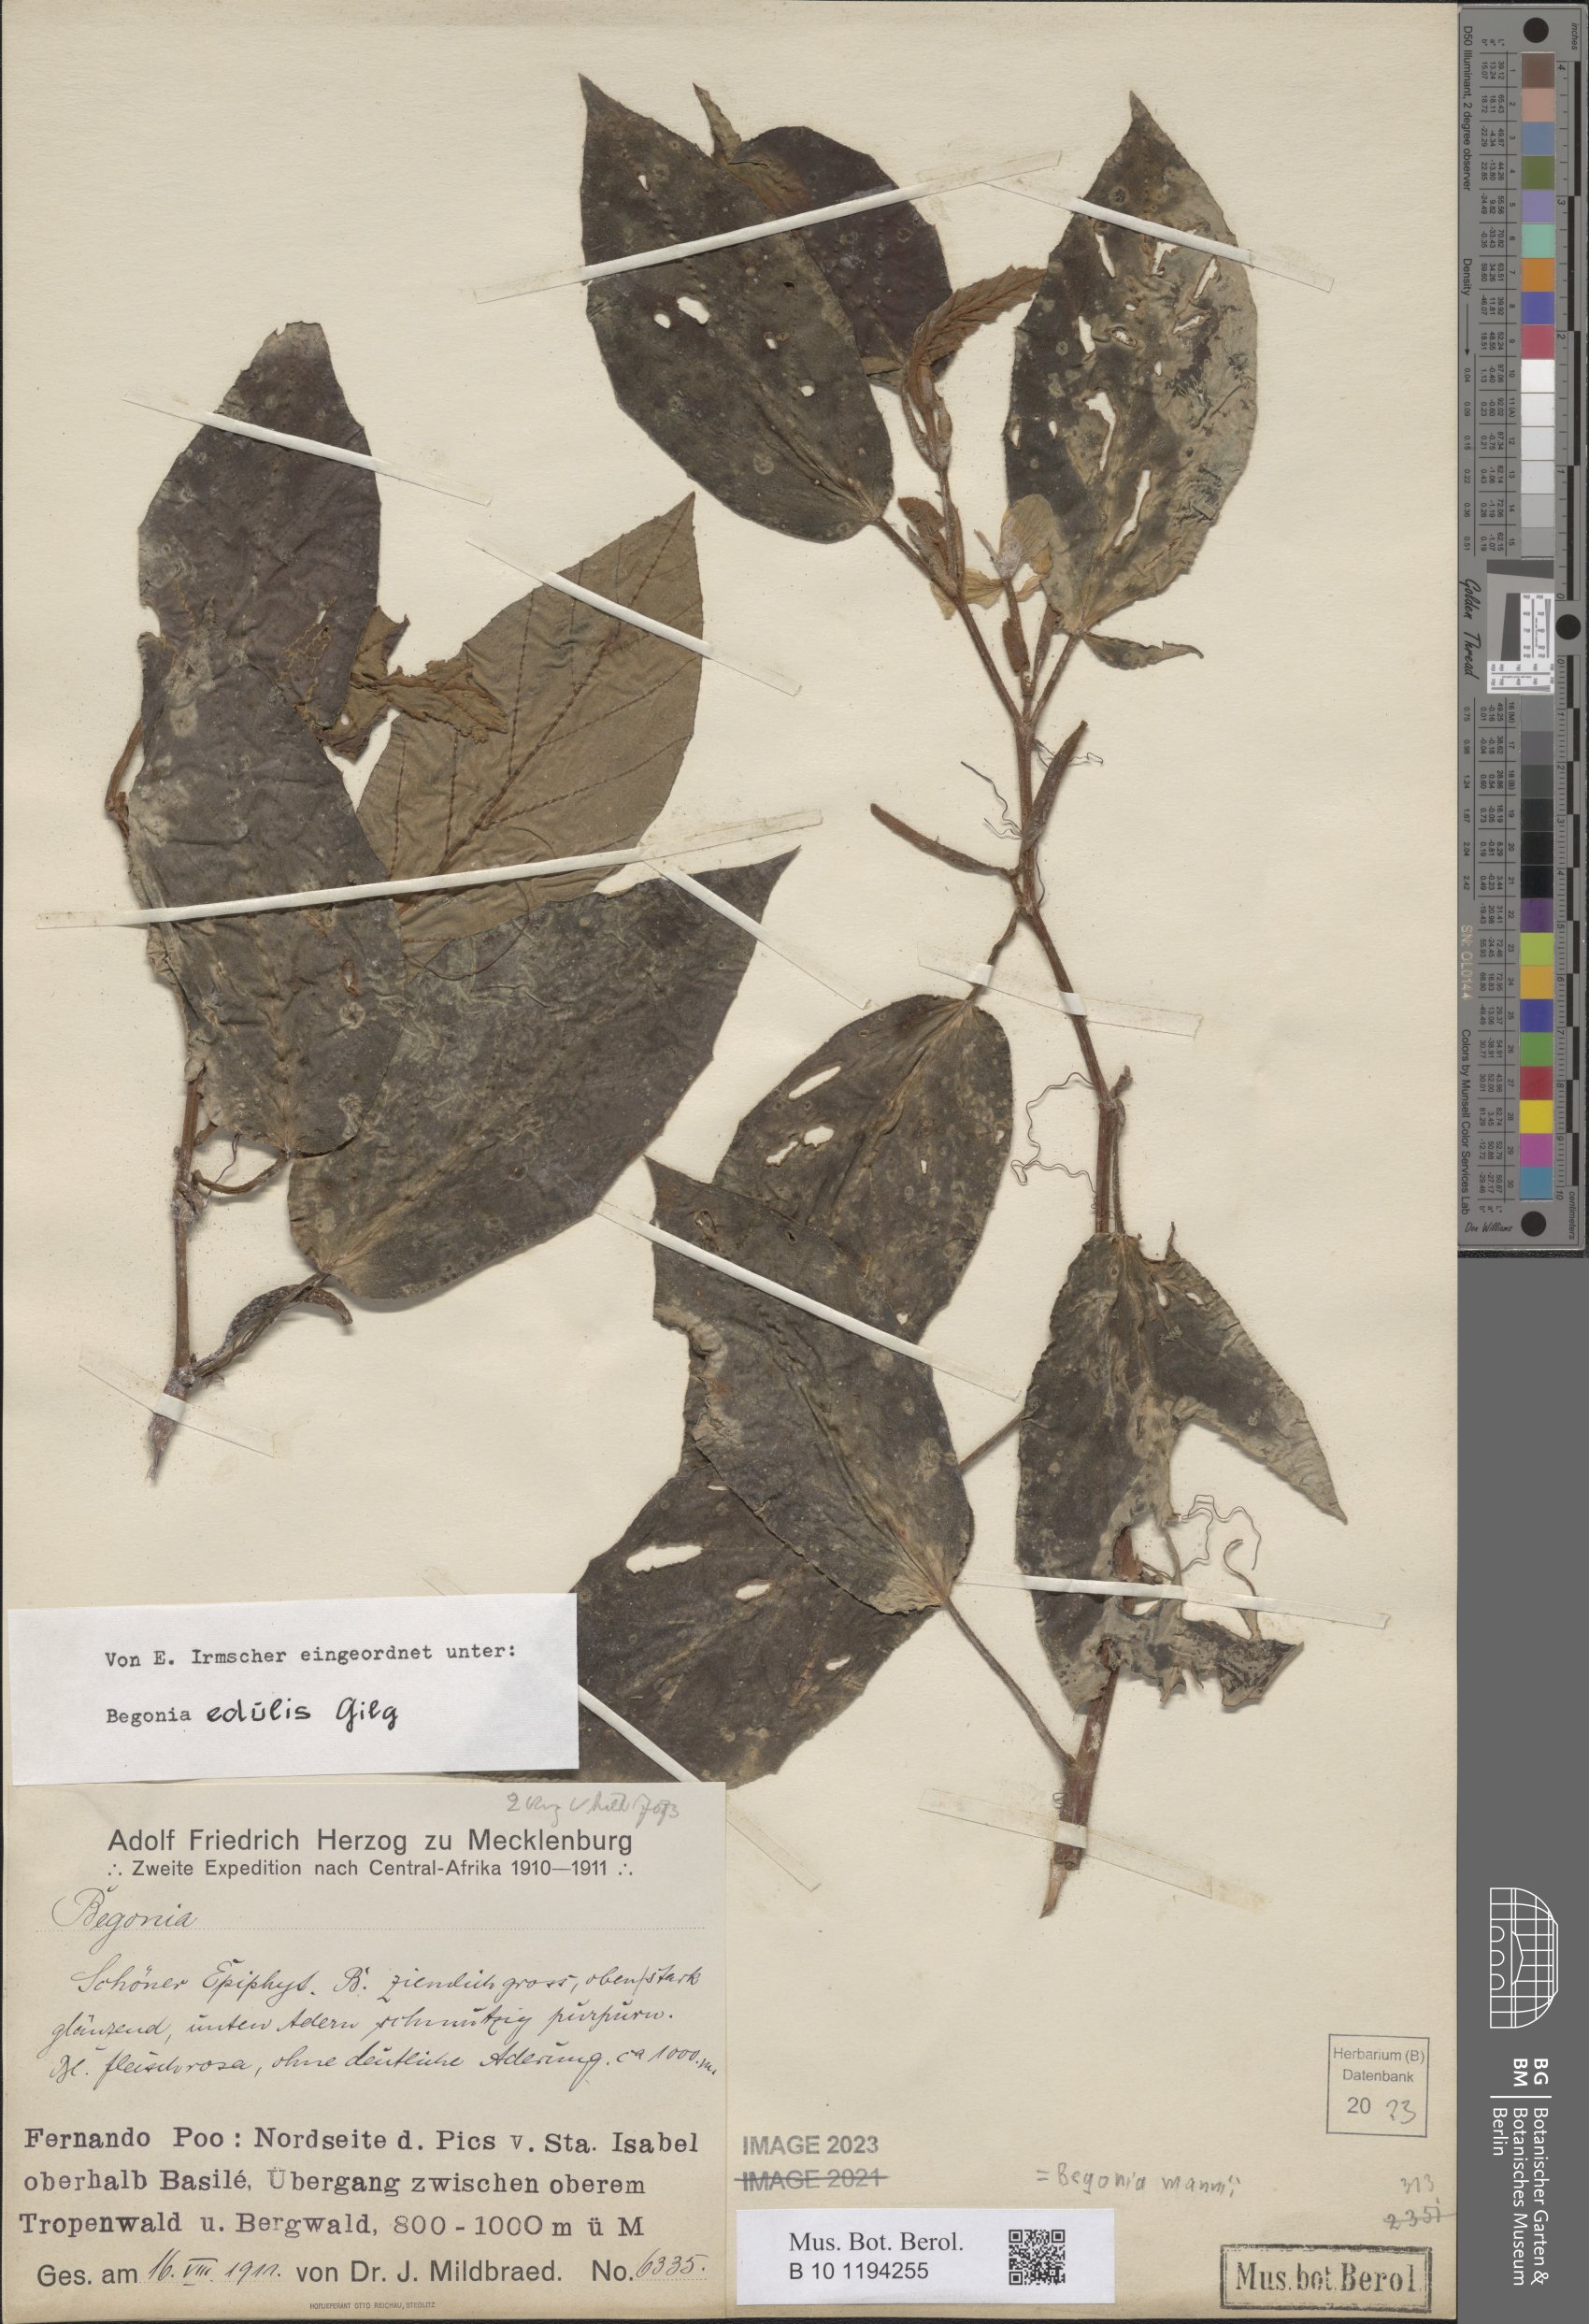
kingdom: Plantae
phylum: Tracheophyta
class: Magnoliopsida
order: Cucurbitales
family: Begoniaceae
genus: Begonia
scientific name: Begonia mannii
